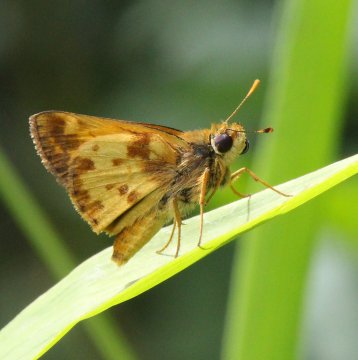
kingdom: Animalia
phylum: Arthropoda
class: Insecta
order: Lepidoptera
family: Hesperiidae
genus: Lon
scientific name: Lon zabulon
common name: Zabulon Skipper
